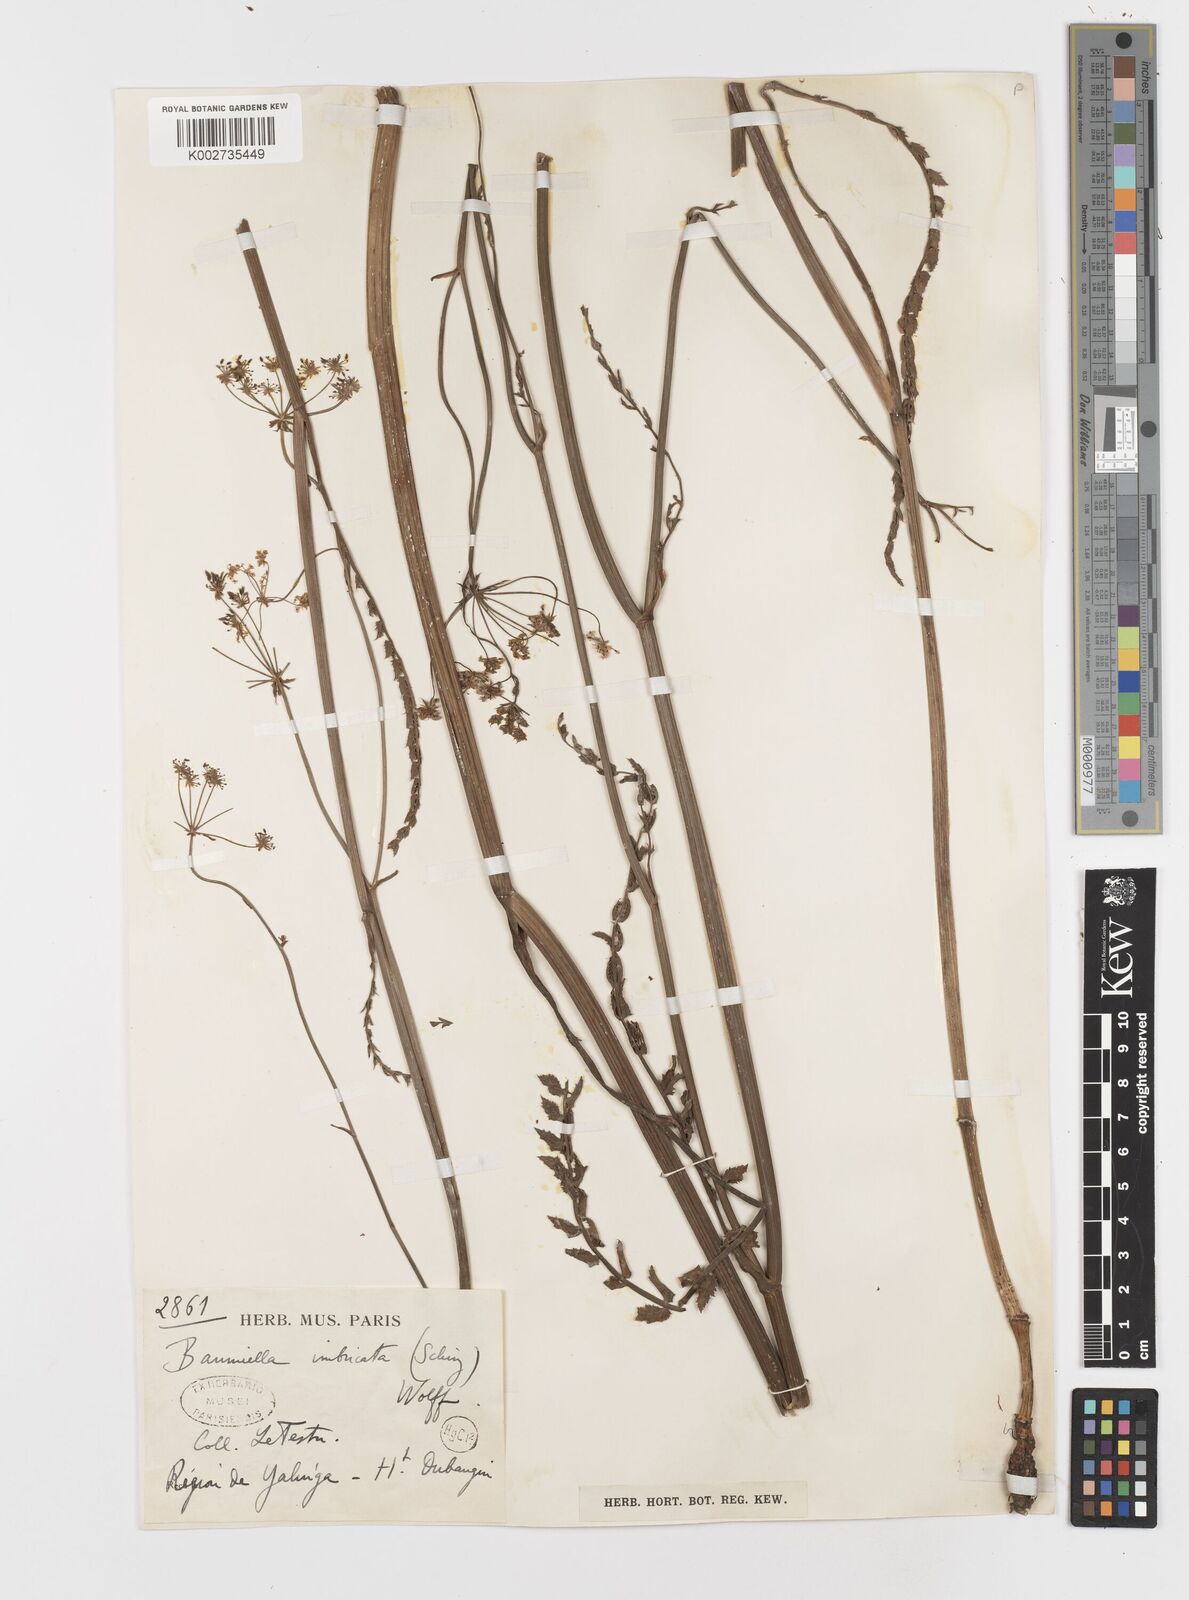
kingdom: Plantae
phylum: Tracheophyta
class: Magnoliopsida
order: Apiales
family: Apiaceae
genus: Berula
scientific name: Berula imbricata
